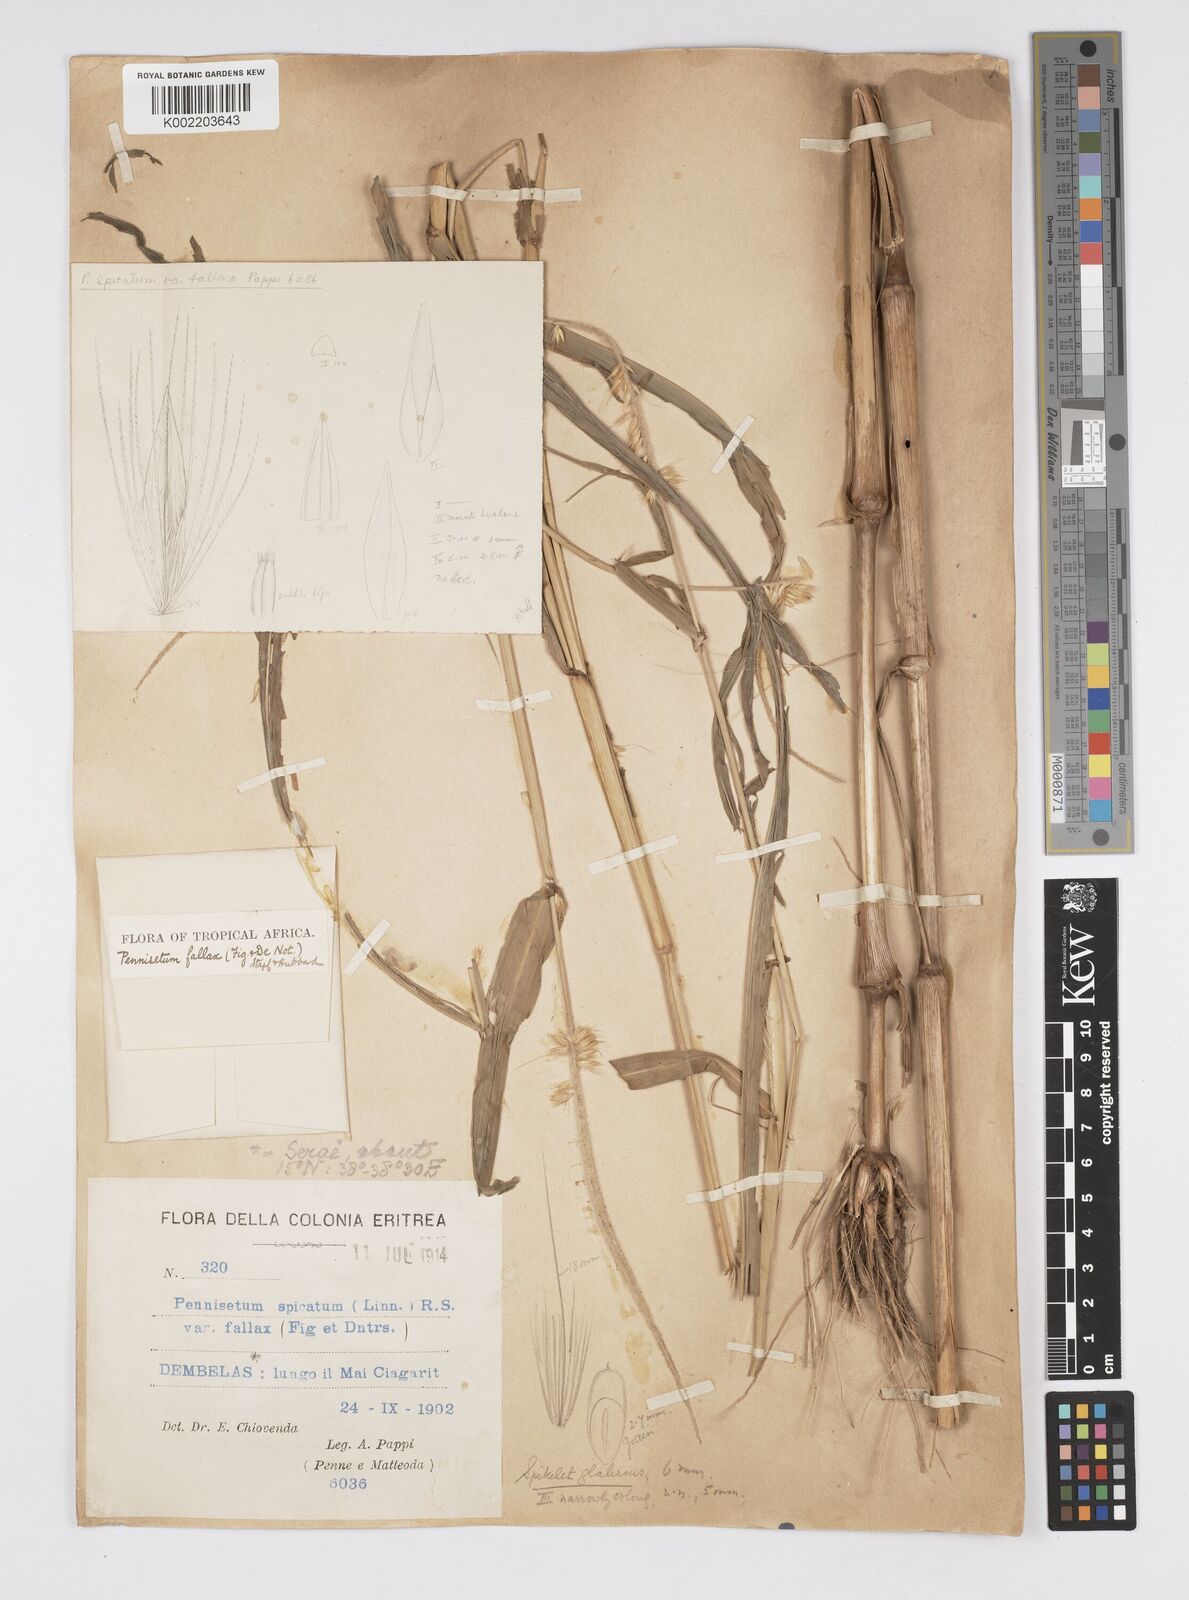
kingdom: Plantae
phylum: Tracheophyta
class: Liliopsida
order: Poales
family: Poaceae
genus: Cenchrus
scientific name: Cenchrus violaceus
